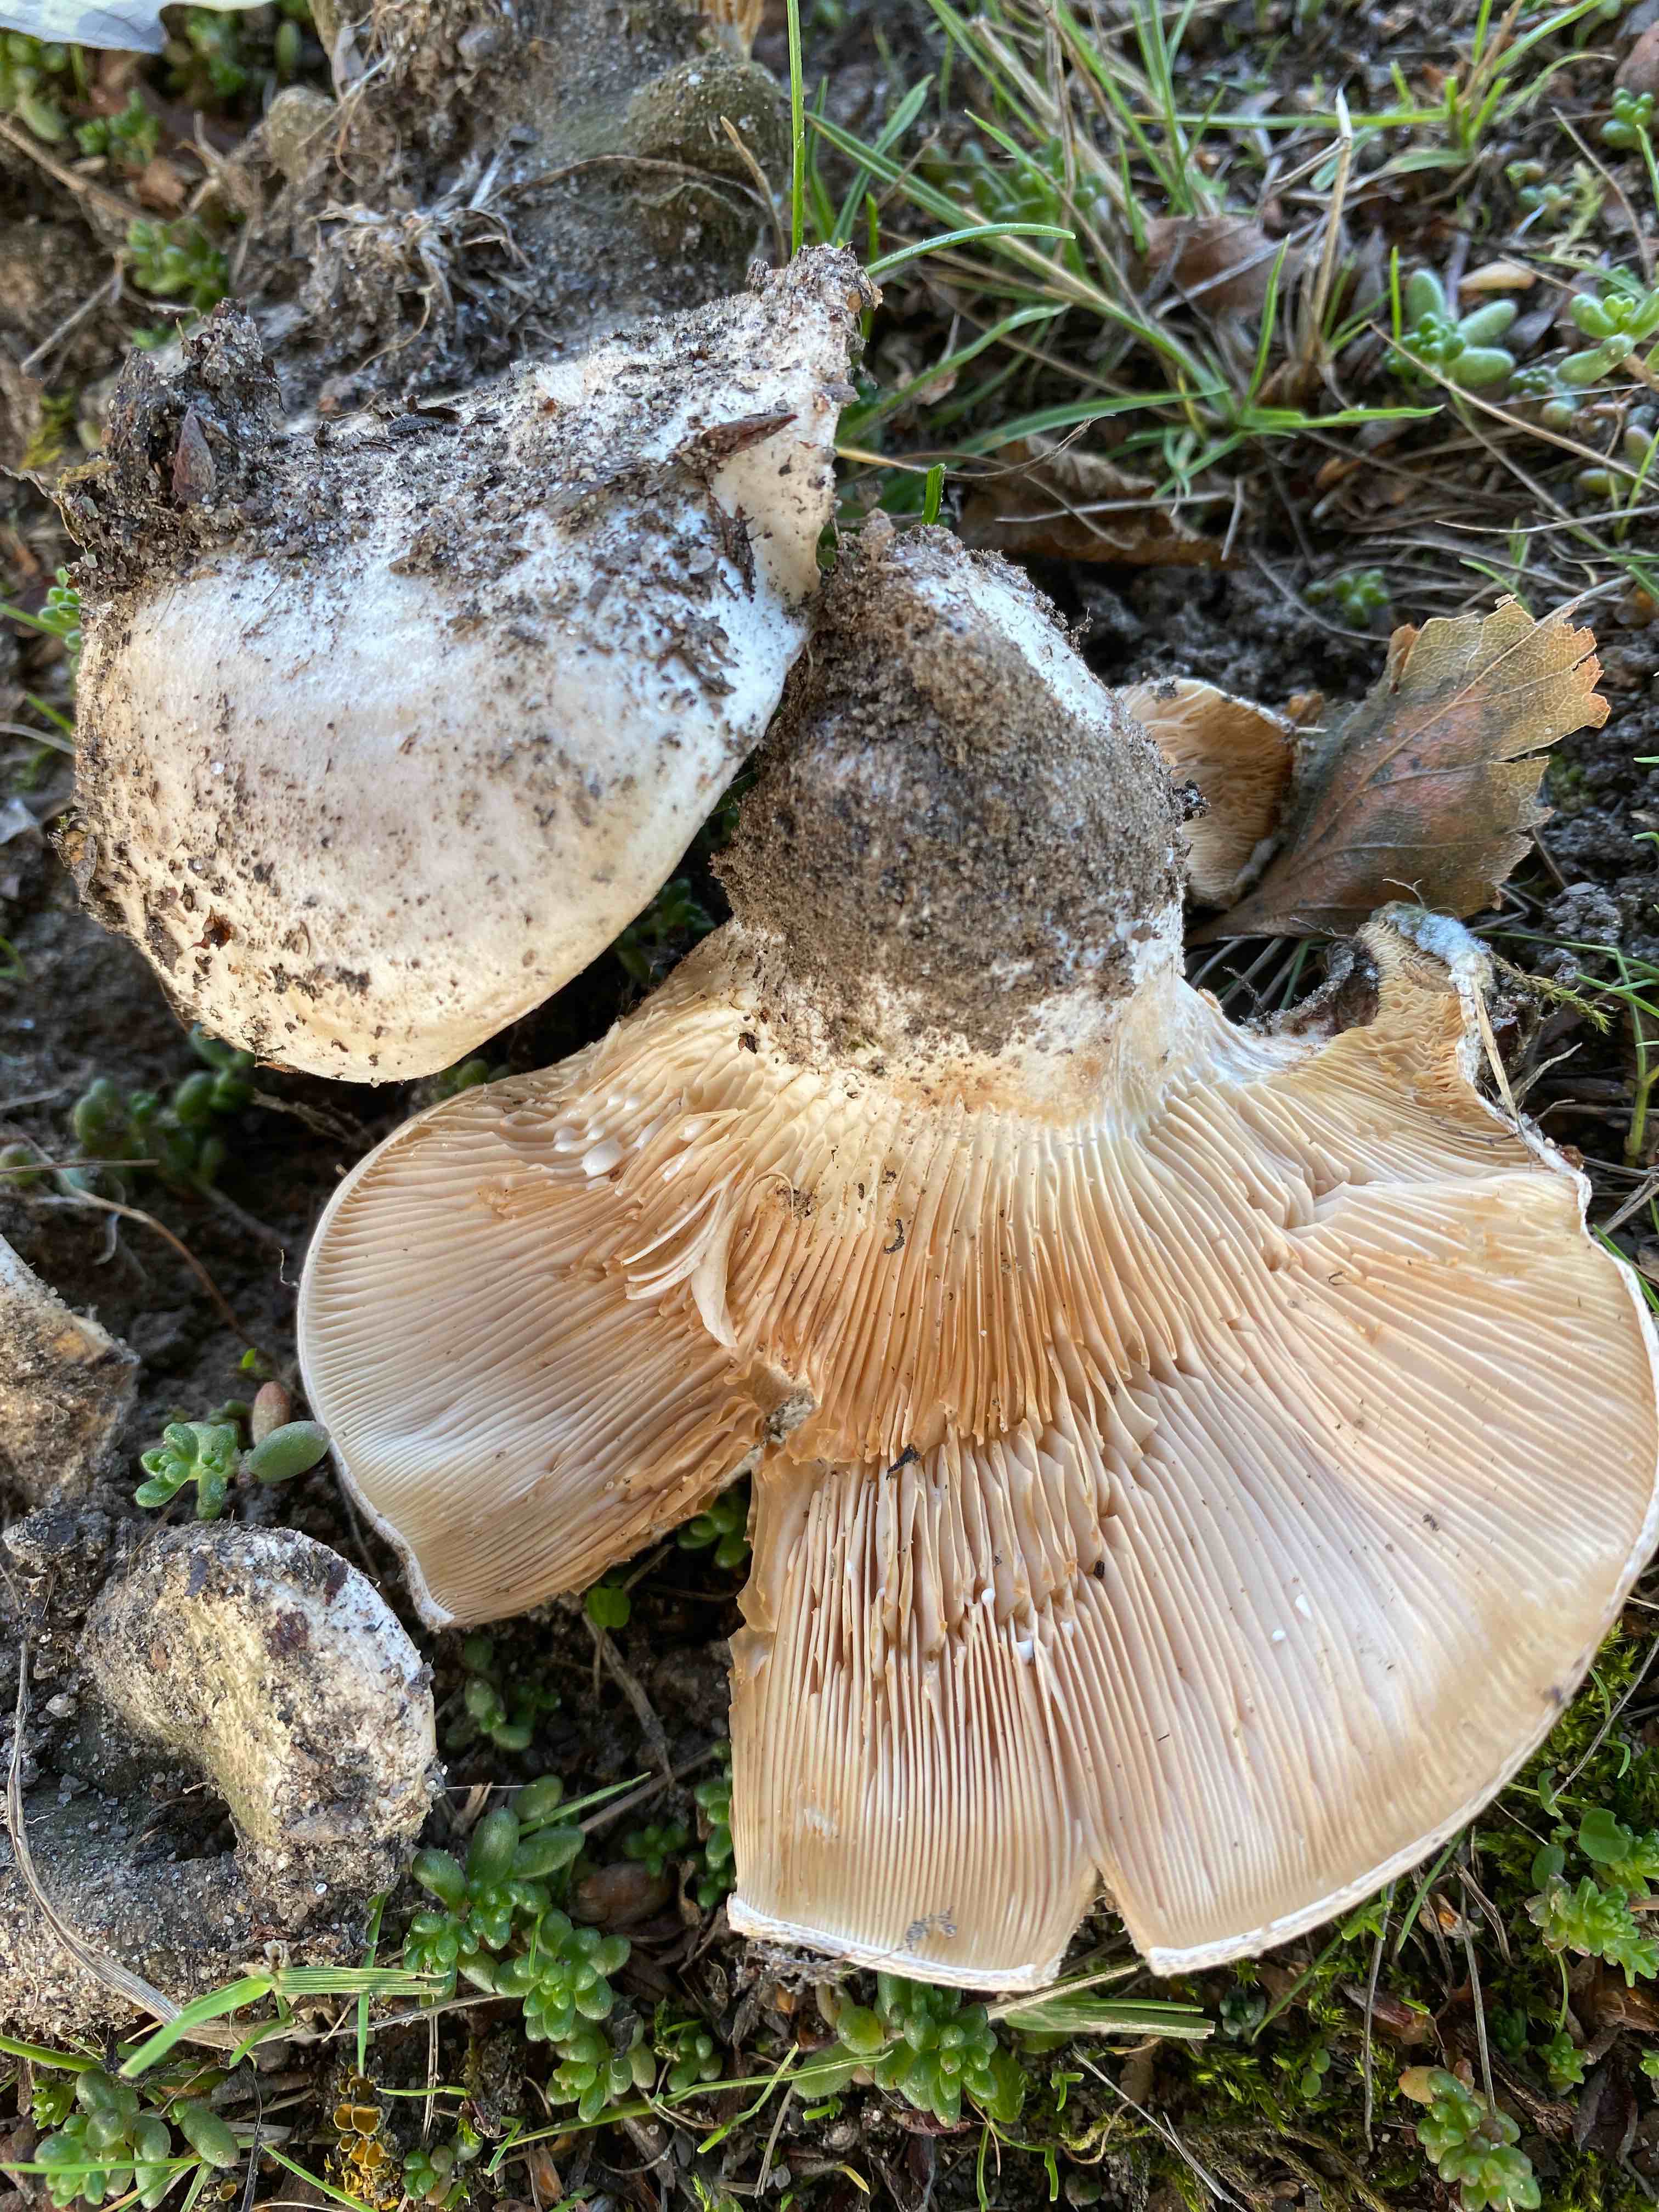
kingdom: Fungi
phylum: Basidiomycota
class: Agaricomycetes
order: Russulales
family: Russulaceae
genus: Lactarius
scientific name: Lactarius controversus
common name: rosabladet mælkehat
